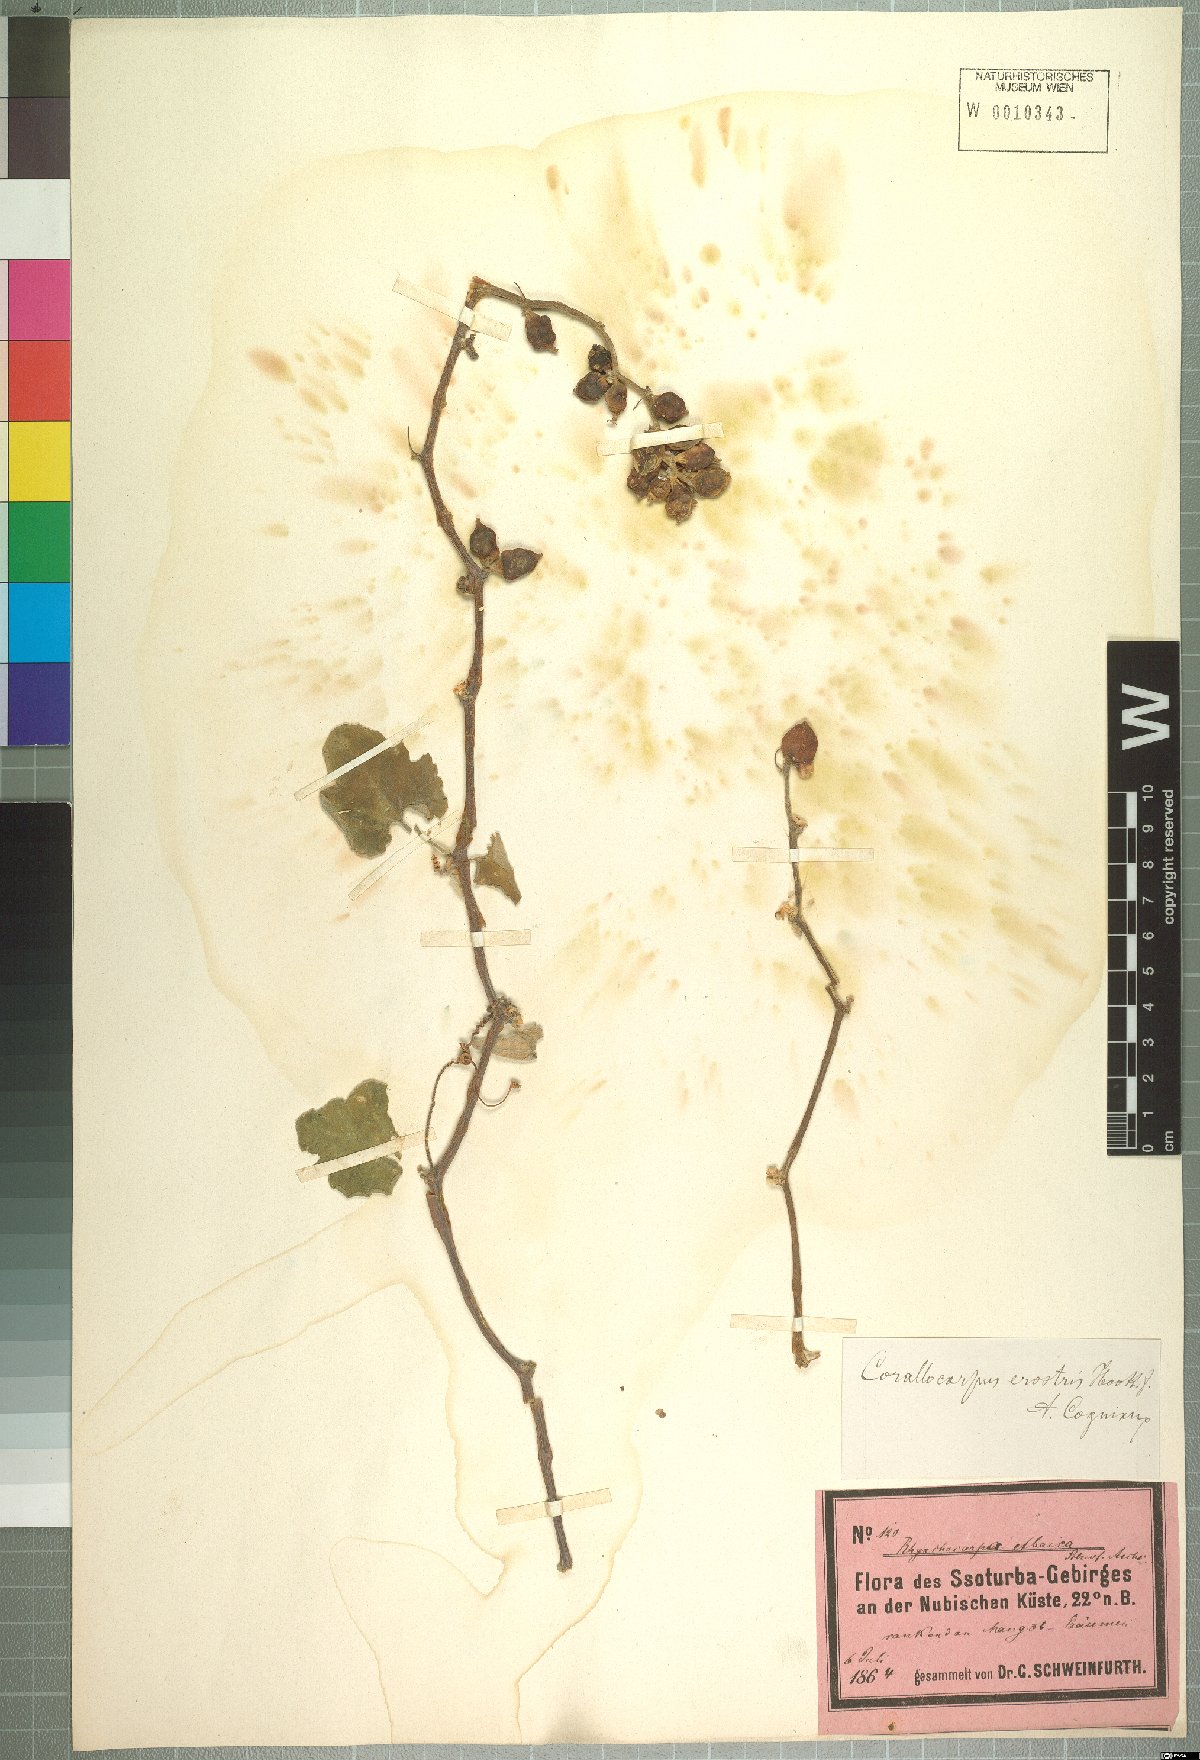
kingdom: Plantae
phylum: Tracheophyta
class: Magnoliopsida
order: Cucurbitales
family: Cucurbitaceae
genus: Corallocarpus
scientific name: Corallocarpus schimperi
